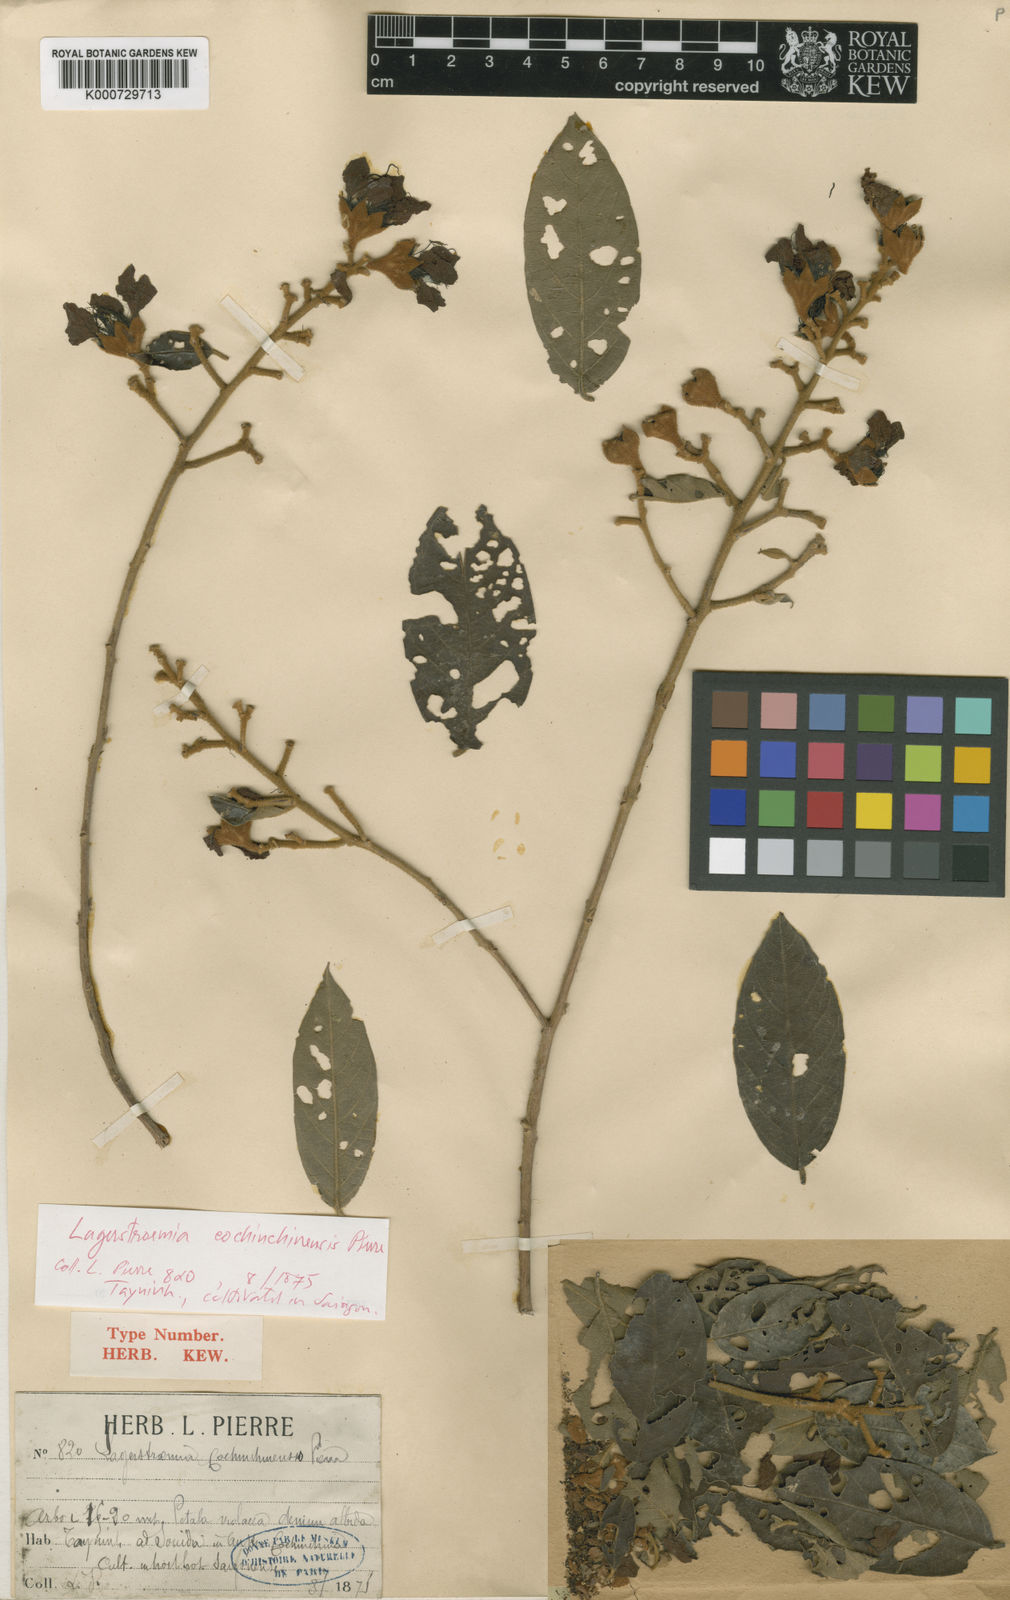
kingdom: Plantae
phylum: Tracheophyta
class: Magnoliopsida
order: Myrtales
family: Lythraceae
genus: Lagerstroemia
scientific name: Lagerstroemia cochinchinensis
